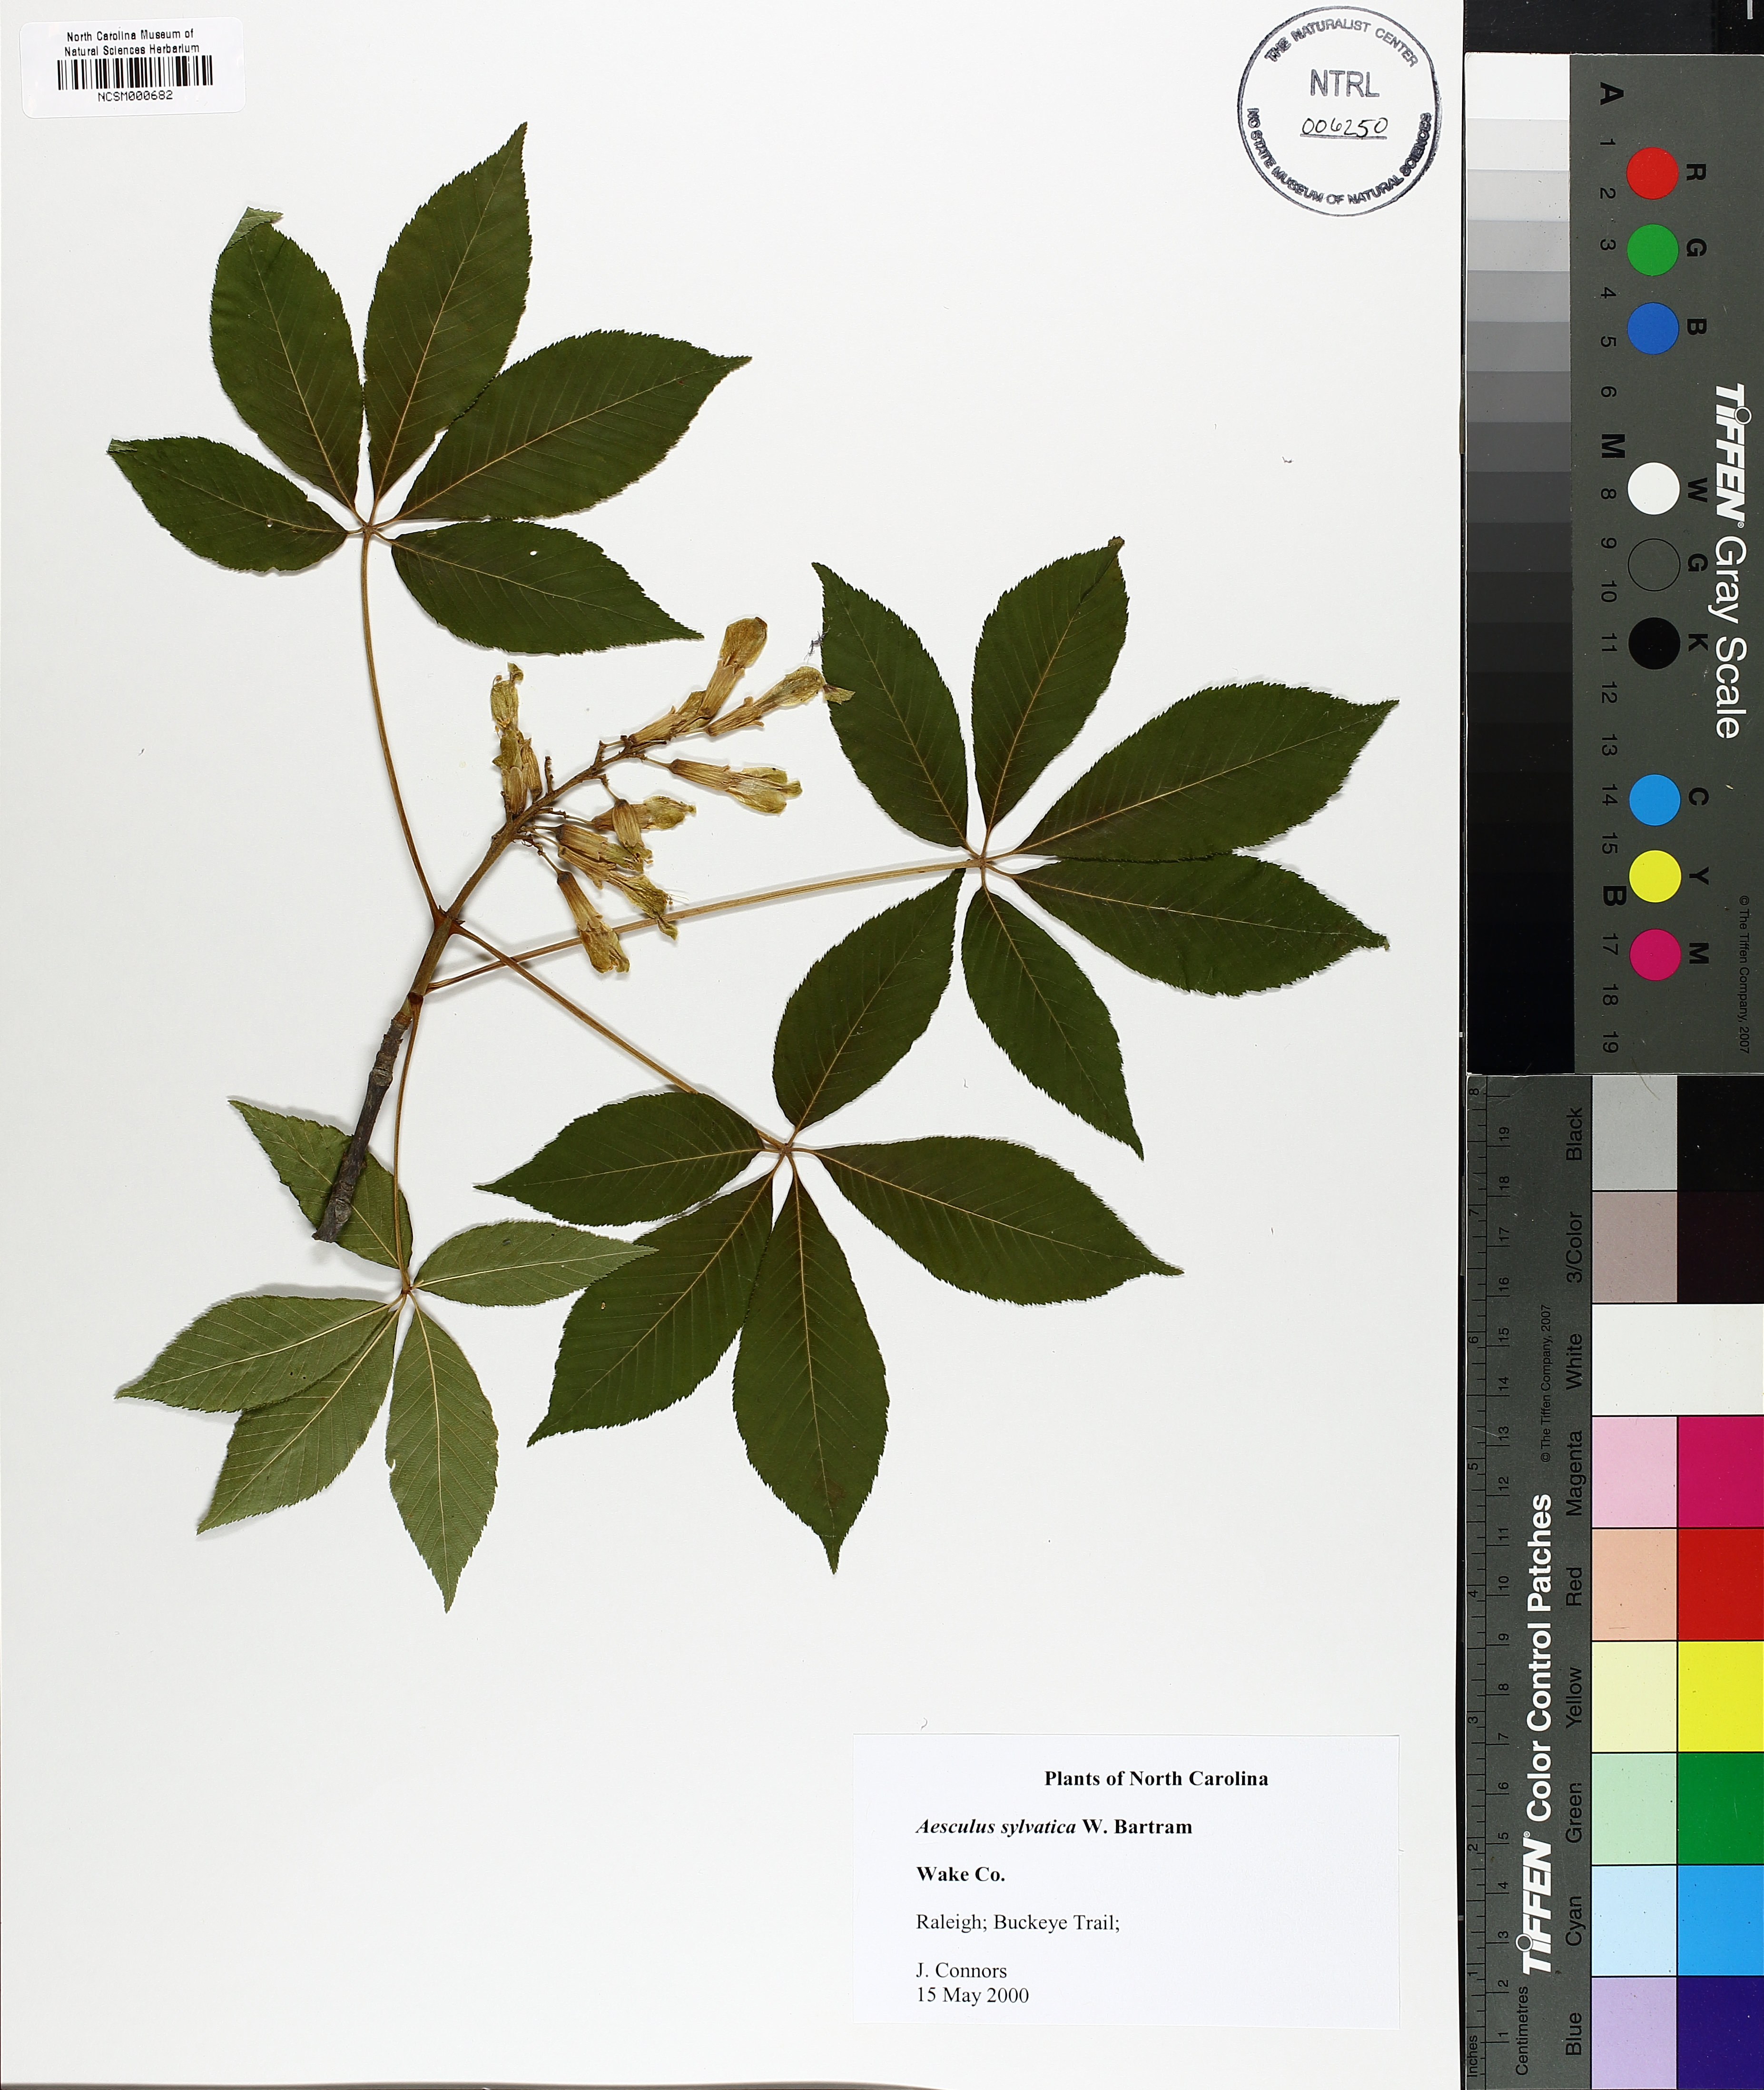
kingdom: Plantae
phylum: Tracheophyta
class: Magnoliopsida
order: Sapindales
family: Sapindaceae
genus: Aesculus
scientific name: Aesculus sylvatica
